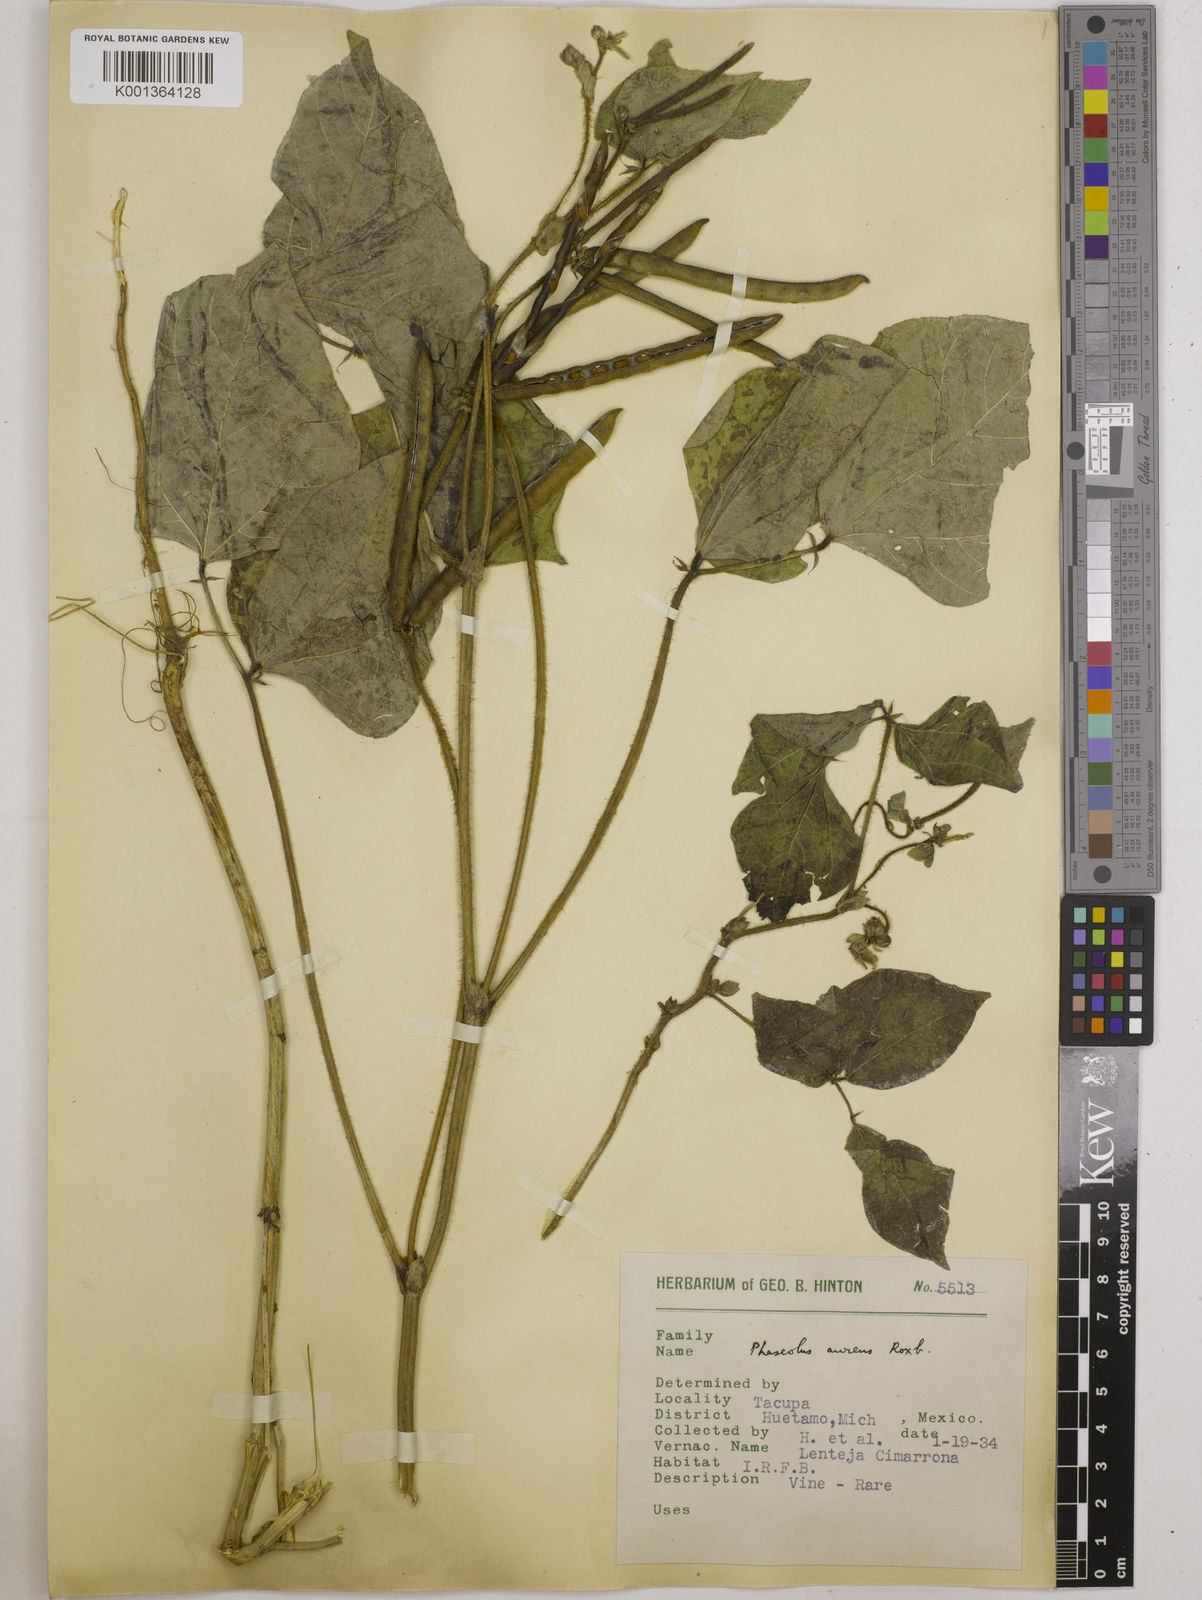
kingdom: Plantae
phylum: Tracheophyta
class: Magnoliopsida
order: Fabales
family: Fabaceae
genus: Vigna
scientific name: Vigna radiata
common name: Mung-bean
